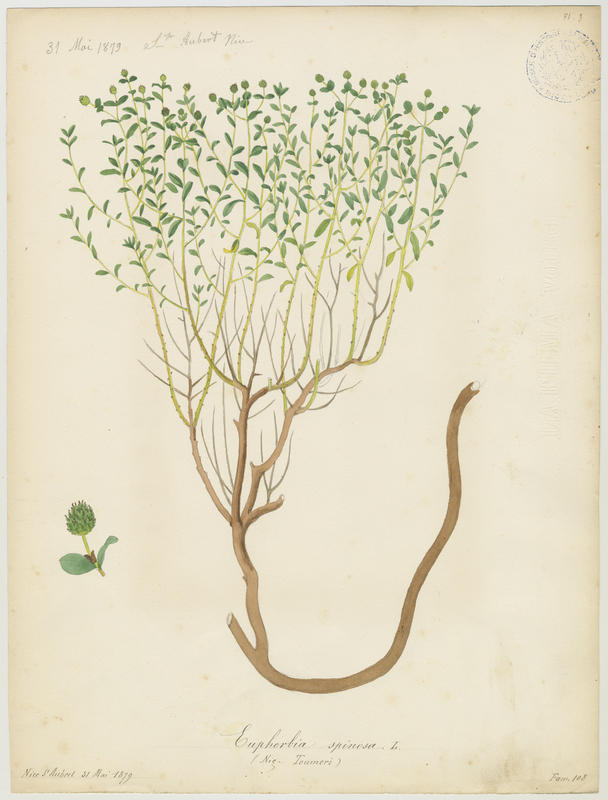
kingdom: Plantae
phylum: Tracheophyta
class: Magnoliopsida
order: Malpighiales
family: Euphorbiaceae
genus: Euphorbia
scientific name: Euphorbia spinosa
